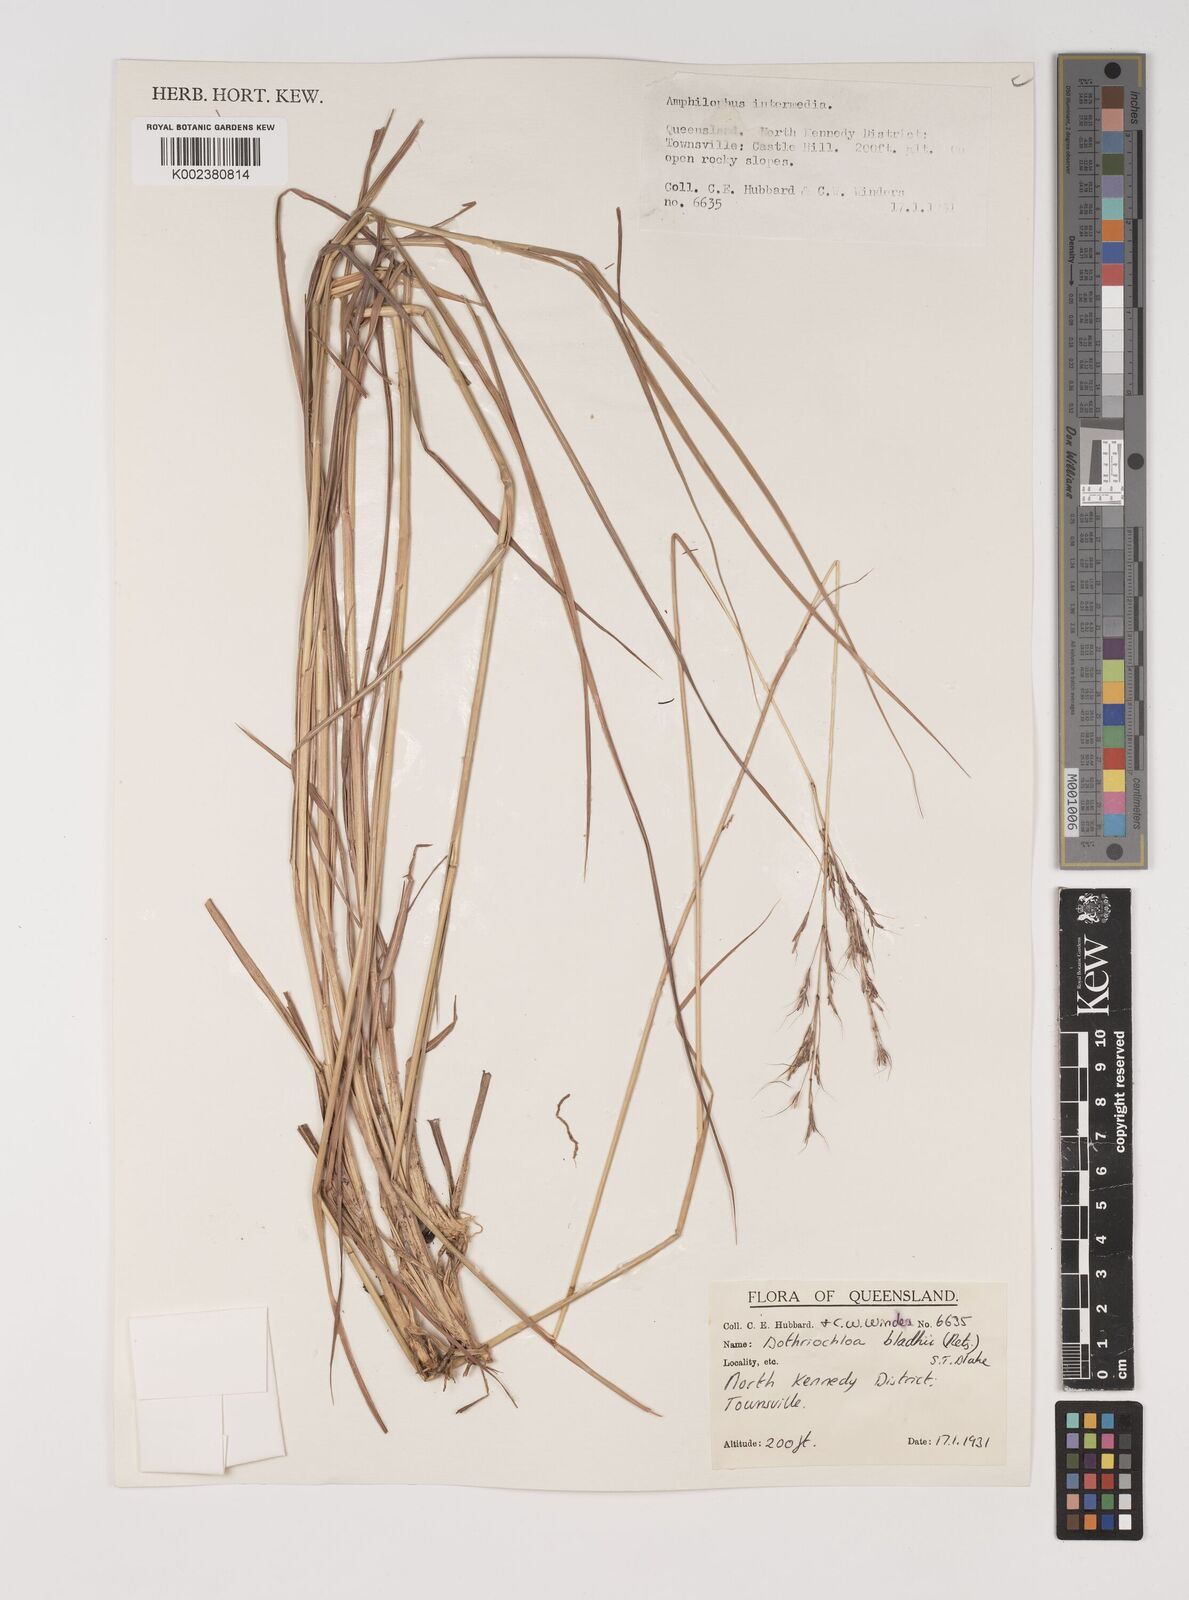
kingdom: Plantae
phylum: Tracheophyta
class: Liliopsida
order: Poales
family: Poaceae
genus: Bothriochloa
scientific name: Bothriochloa bladhii
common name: Caucasian bluestem
